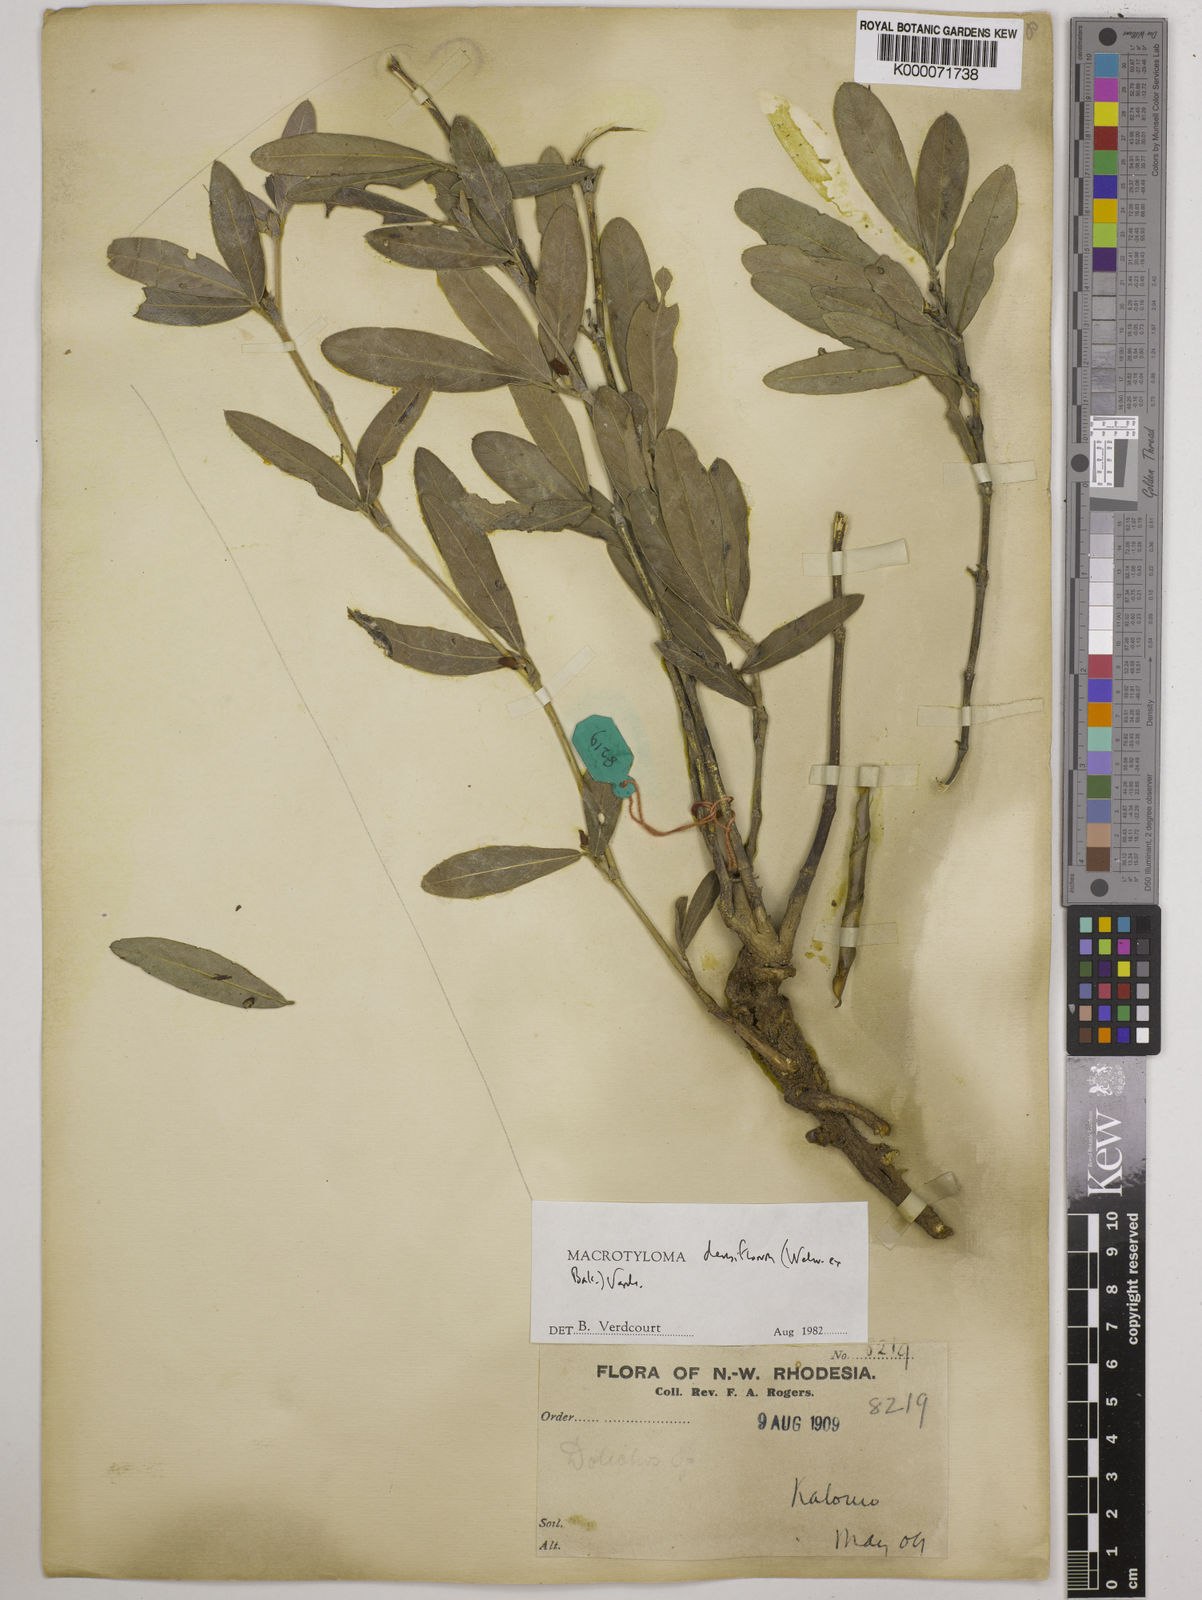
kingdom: Plantae
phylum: Tracheophyta
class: Magnoliopsida
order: Fabales
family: Fabaceae
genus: Macrotyloma
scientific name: Macrotyloma densiflorum
